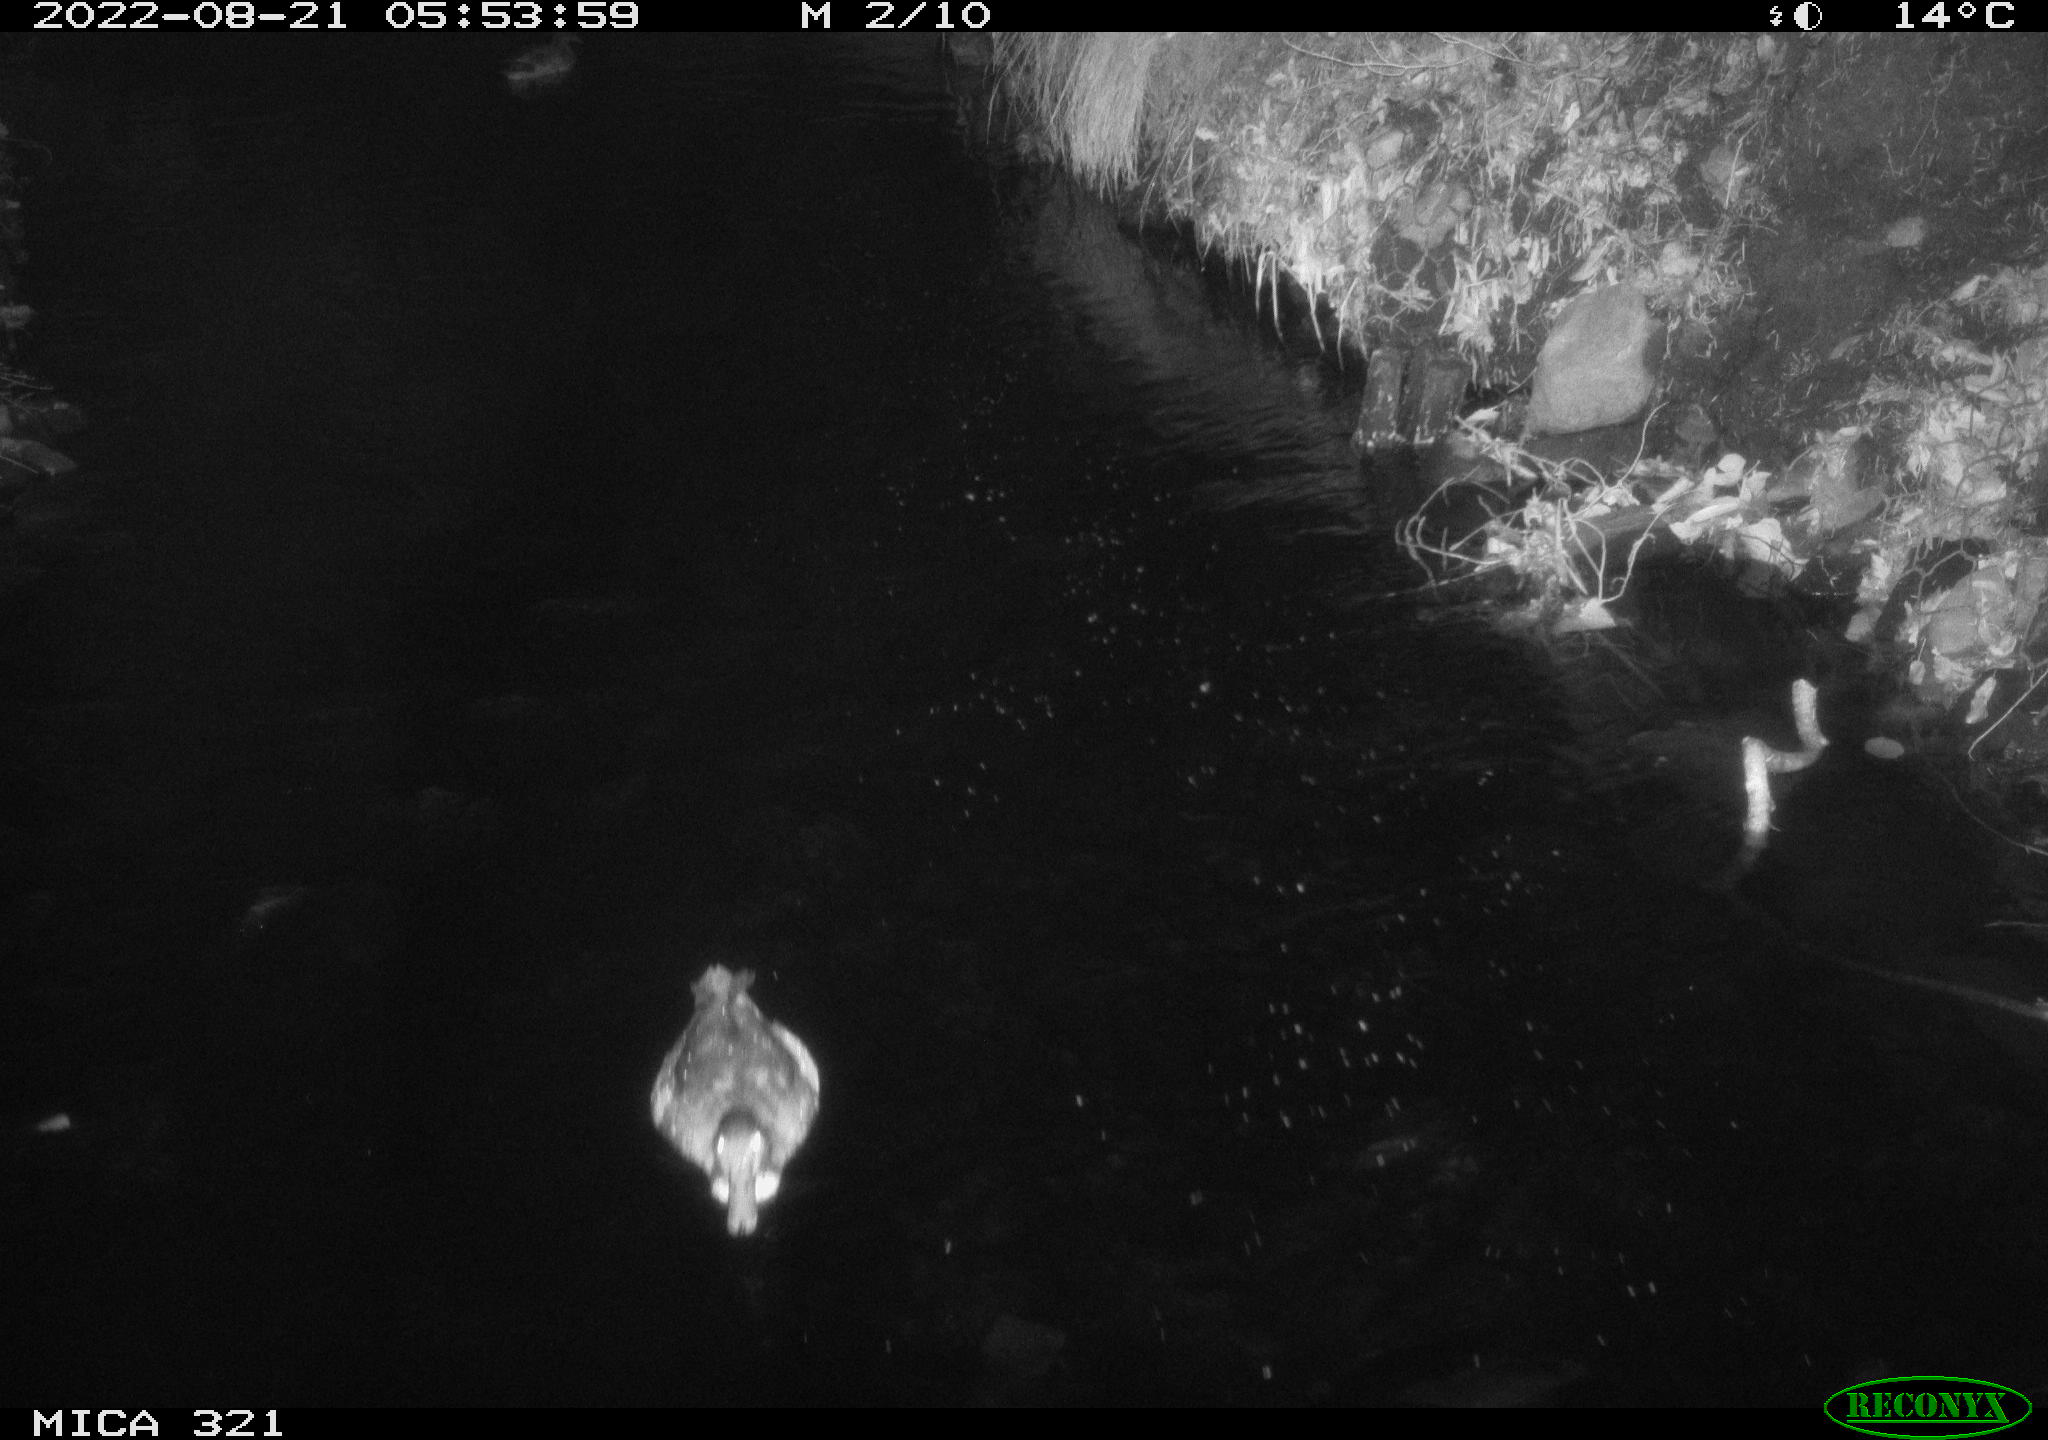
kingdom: Animalia
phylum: Chordata
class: Aves
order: Anseriformes
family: Anatidae
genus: Anas
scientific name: Anas platyrhynchos
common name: Mallard
